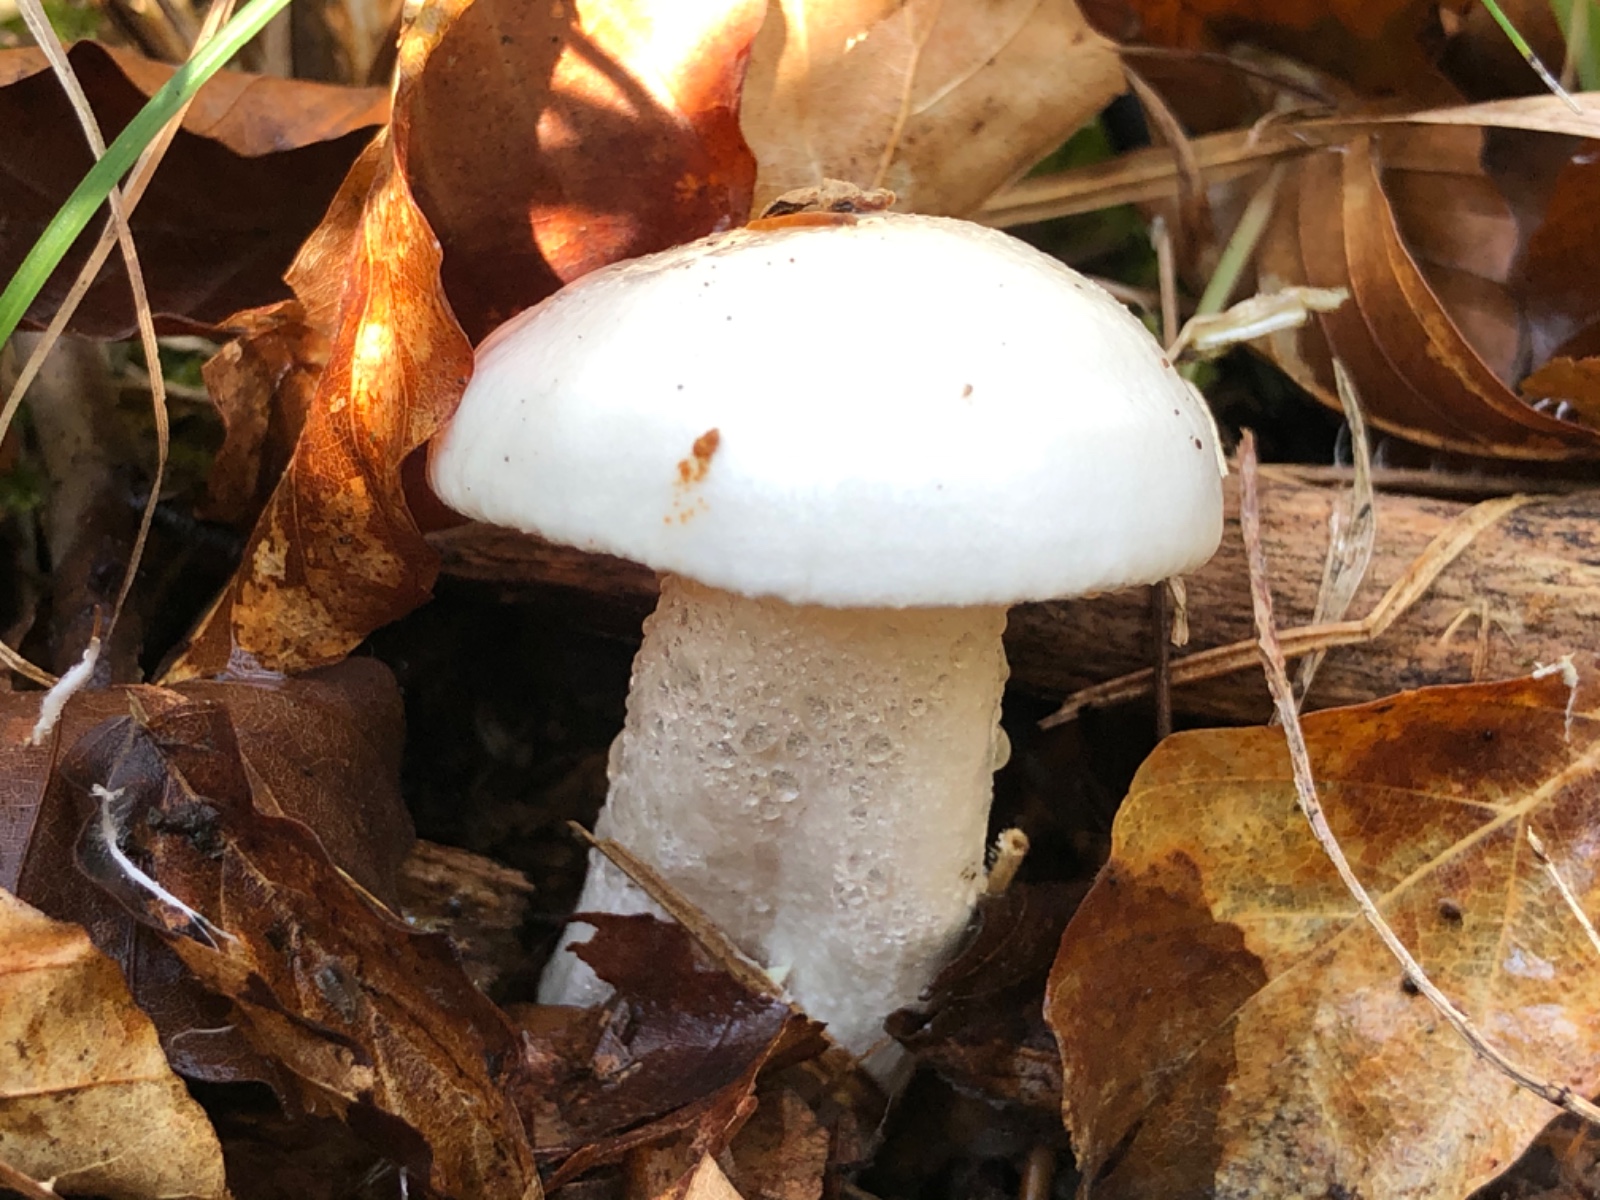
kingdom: Fungi
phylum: Basidiomycota
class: Agaricomycetes
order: Agaricales
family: Hygrophoraceae
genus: Hygrophorus
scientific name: Hygrophorus eburneus
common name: elfenbens-sneglehat
